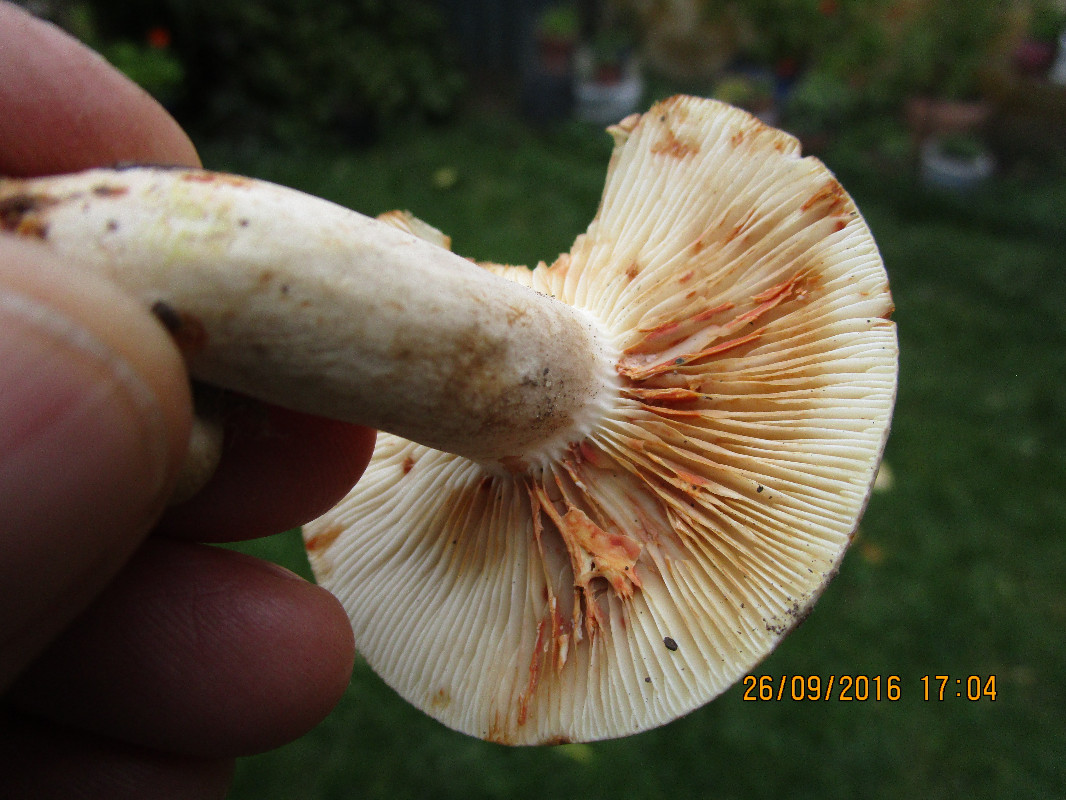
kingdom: Fungi
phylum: Basidiomycota
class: Agaricomycetes
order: Russulales
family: Russulaceae
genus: Lactarius
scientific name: Lactarius
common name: mælkehat
